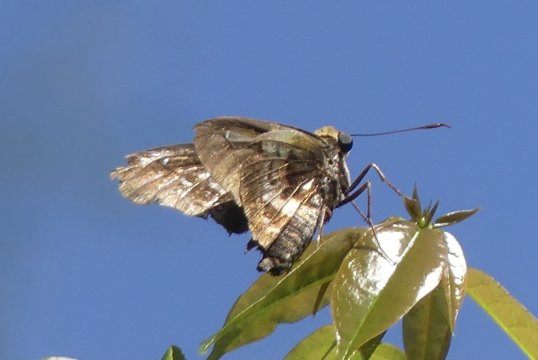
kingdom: Animalia
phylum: Arthropoda
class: Insecta
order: Lepidoptera
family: Hesperiidae
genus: Proteides
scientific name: Proteides mercurius
